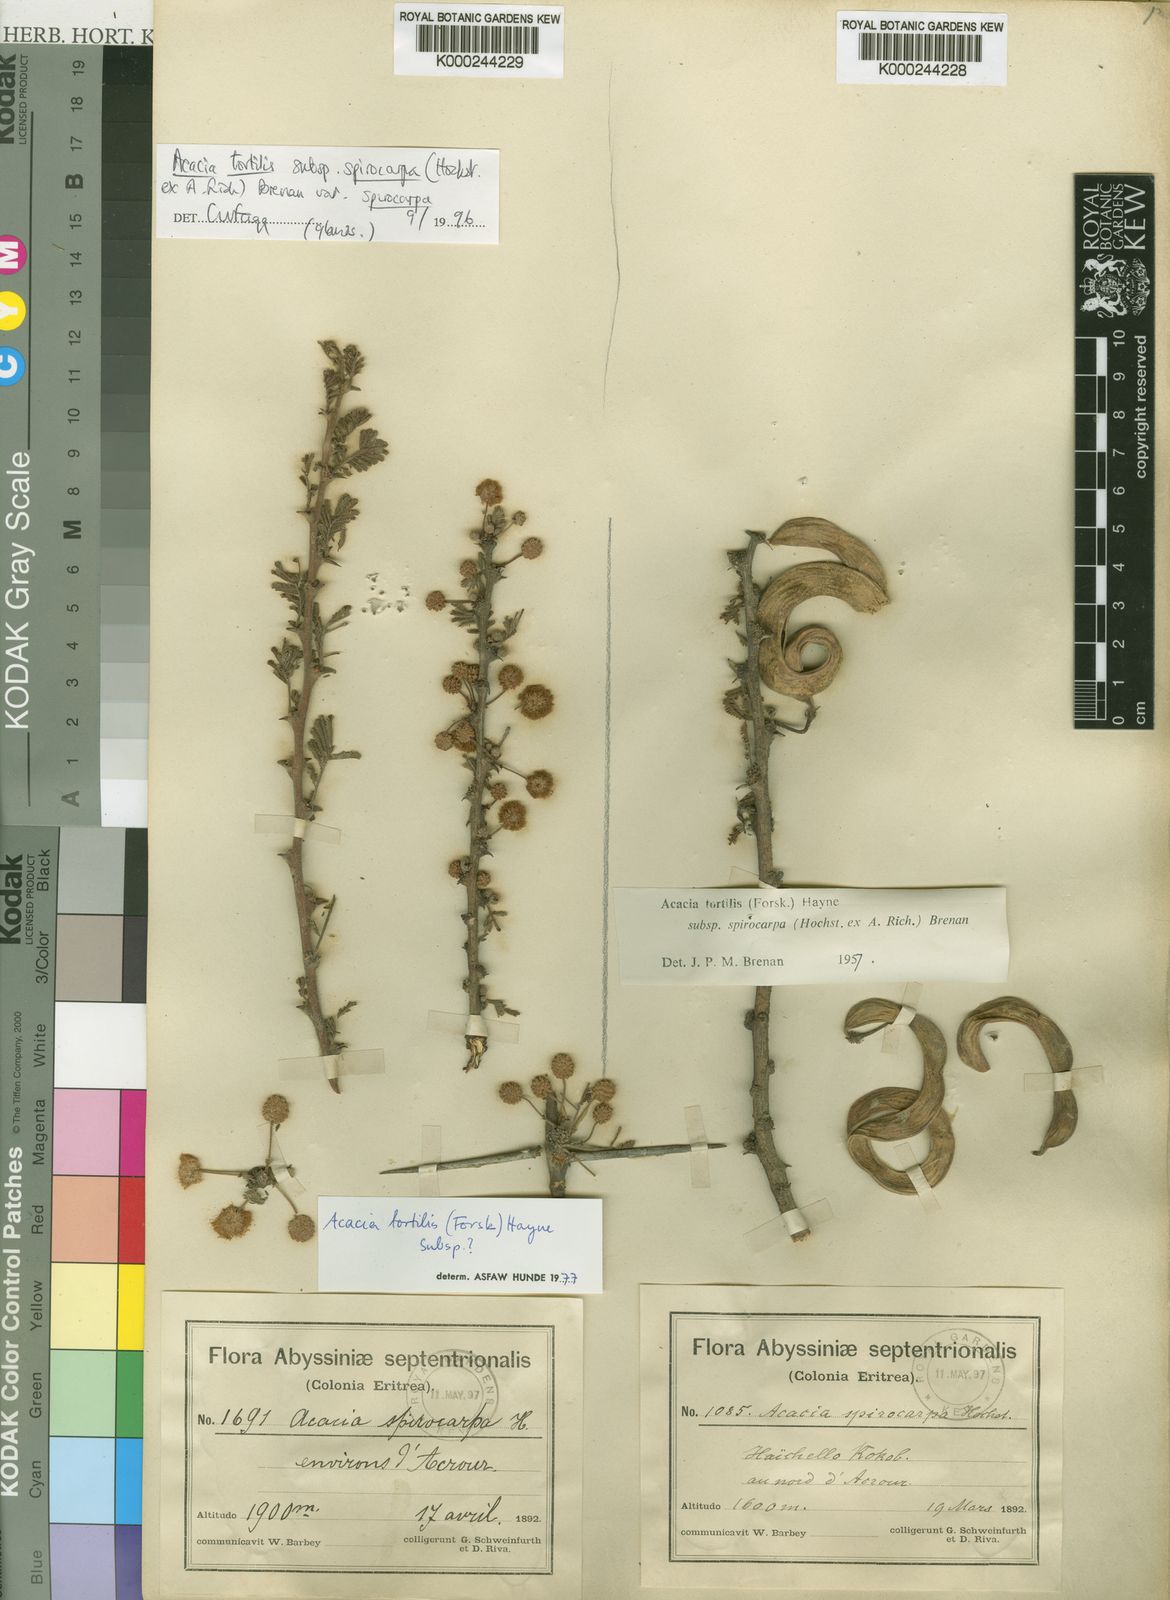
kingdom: Plantae
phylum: Tracheophyta
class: Magnoliopsida
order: Fabales
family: Fabaceae
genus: Vachellia
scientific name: Vachellia tortilis
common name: Umbrella thorn acacia
